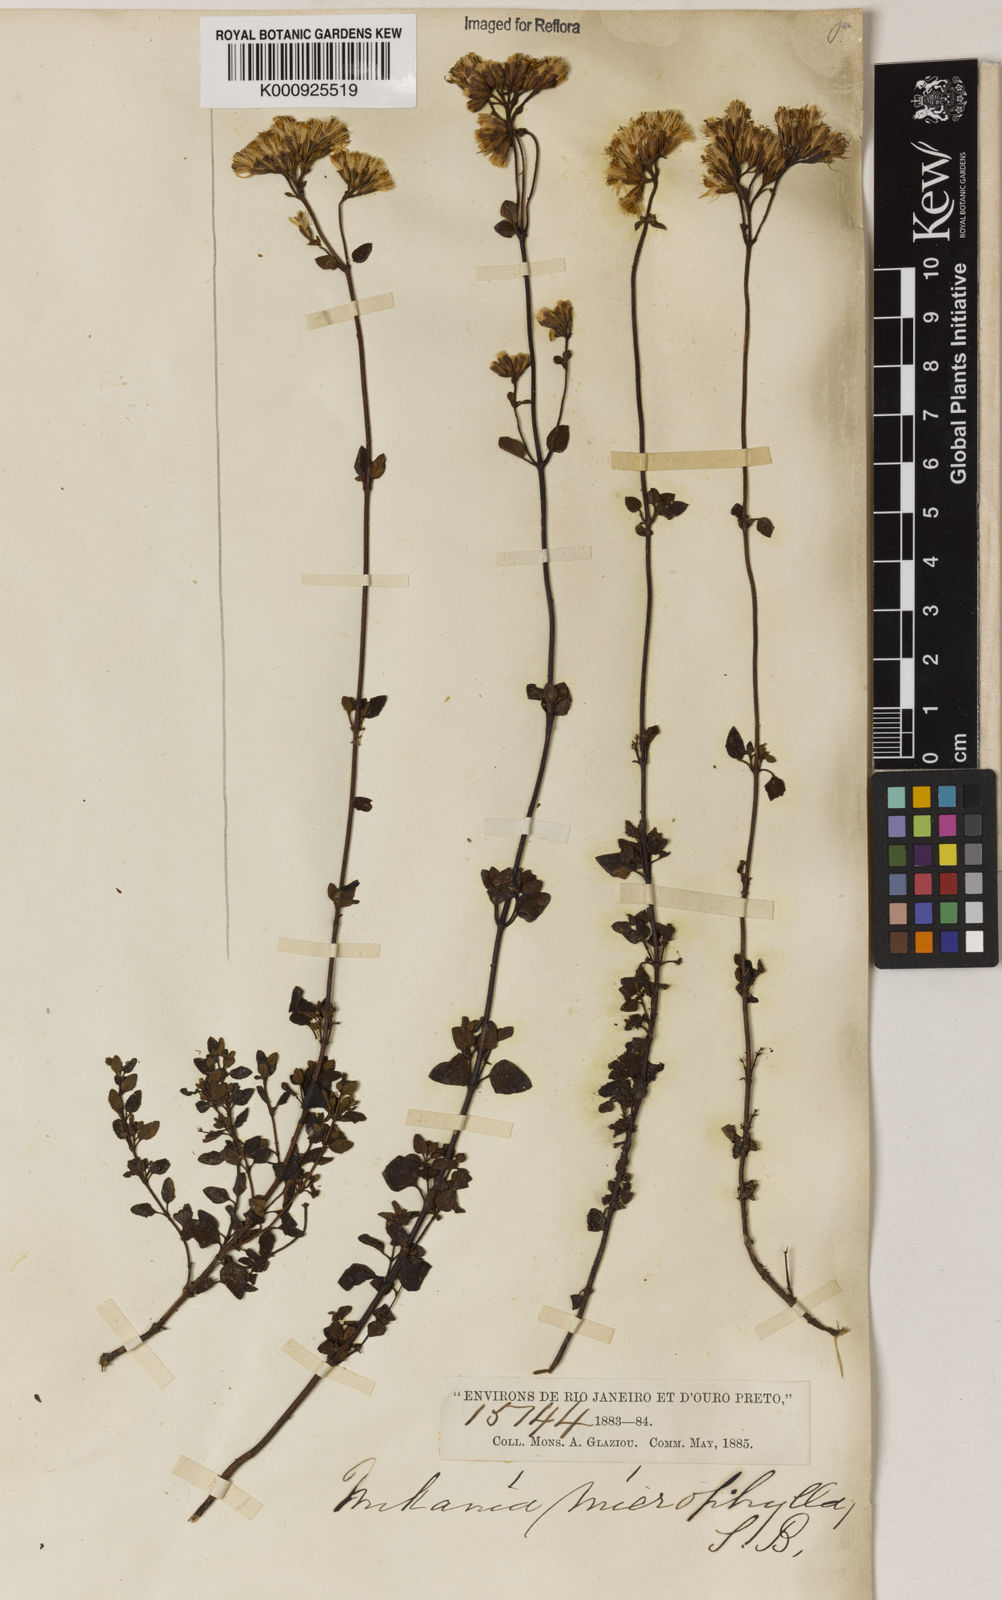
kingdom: Plantae
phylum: Tracheophyta
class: Magnoliopsida
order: Asterales
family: Asteraceae
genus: Mikania
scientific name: Mikania
